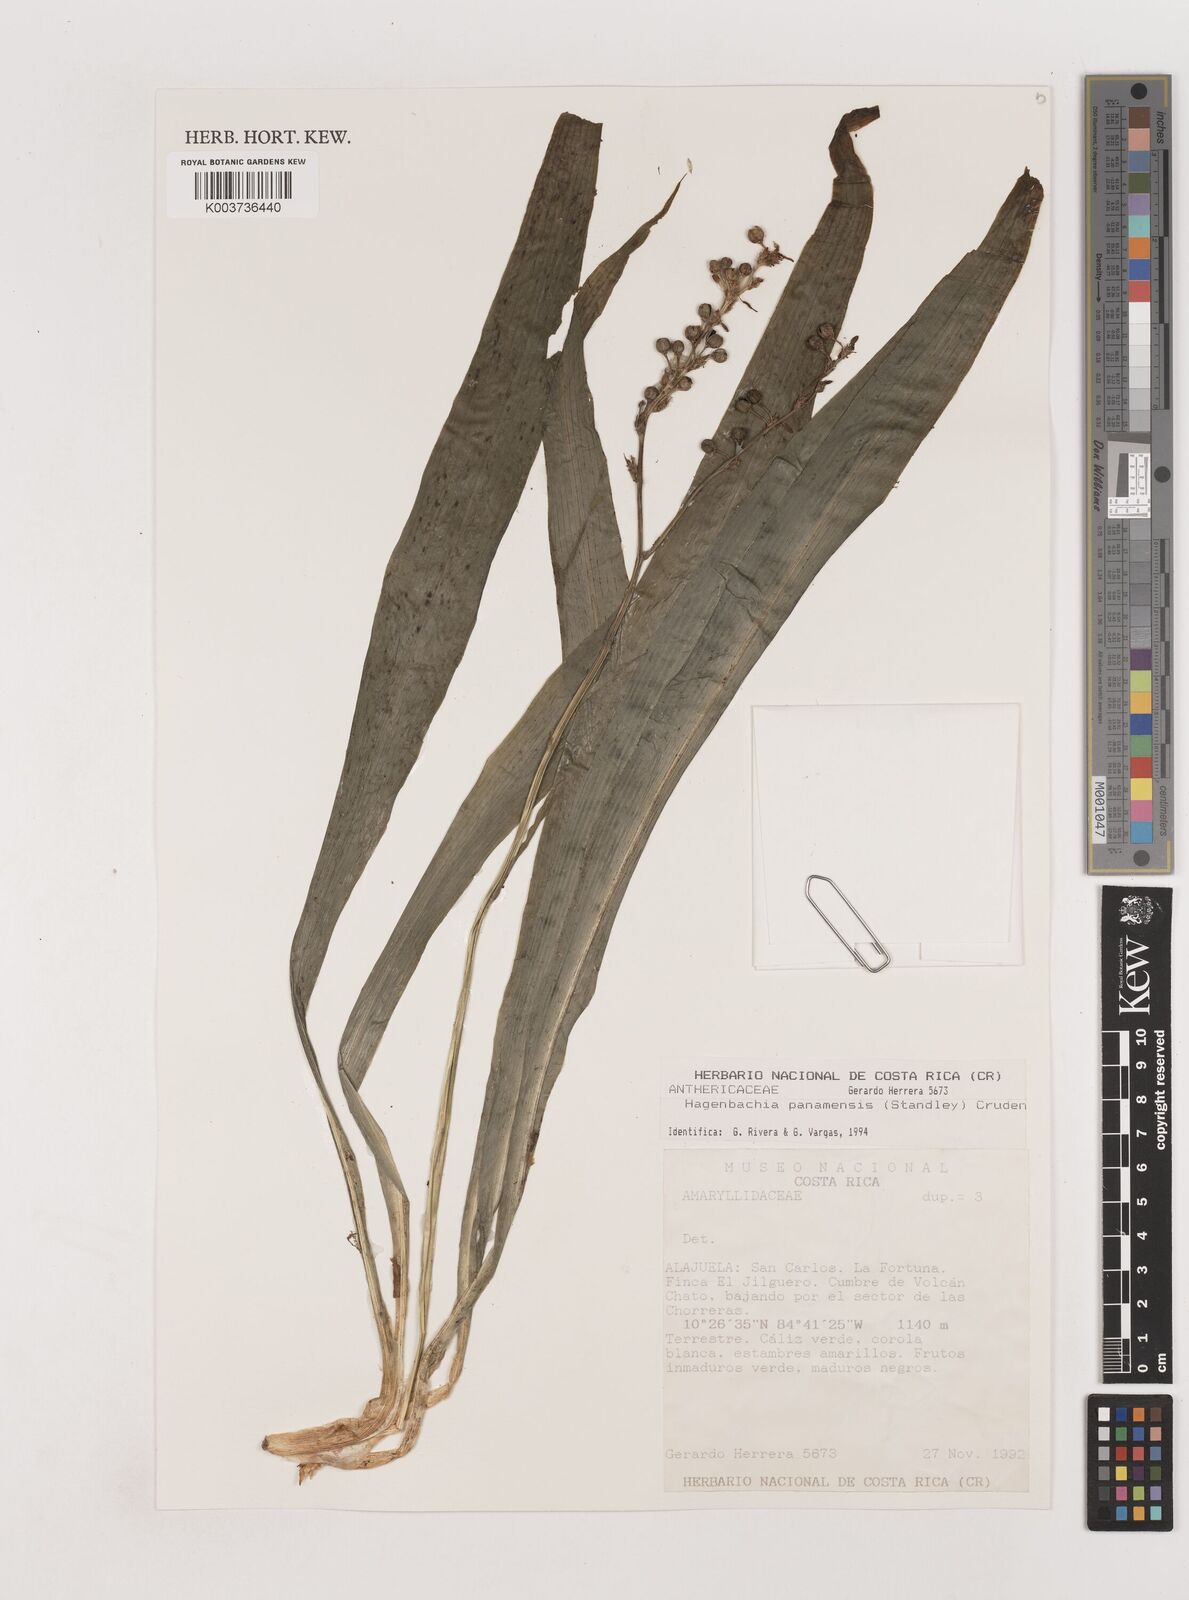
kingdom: Plantae
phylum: Tracheophyta
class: Liliopsida
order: Asparagales
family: Asparagaceae
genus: Hagenbachia
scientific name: Hagenbachia panamensis
